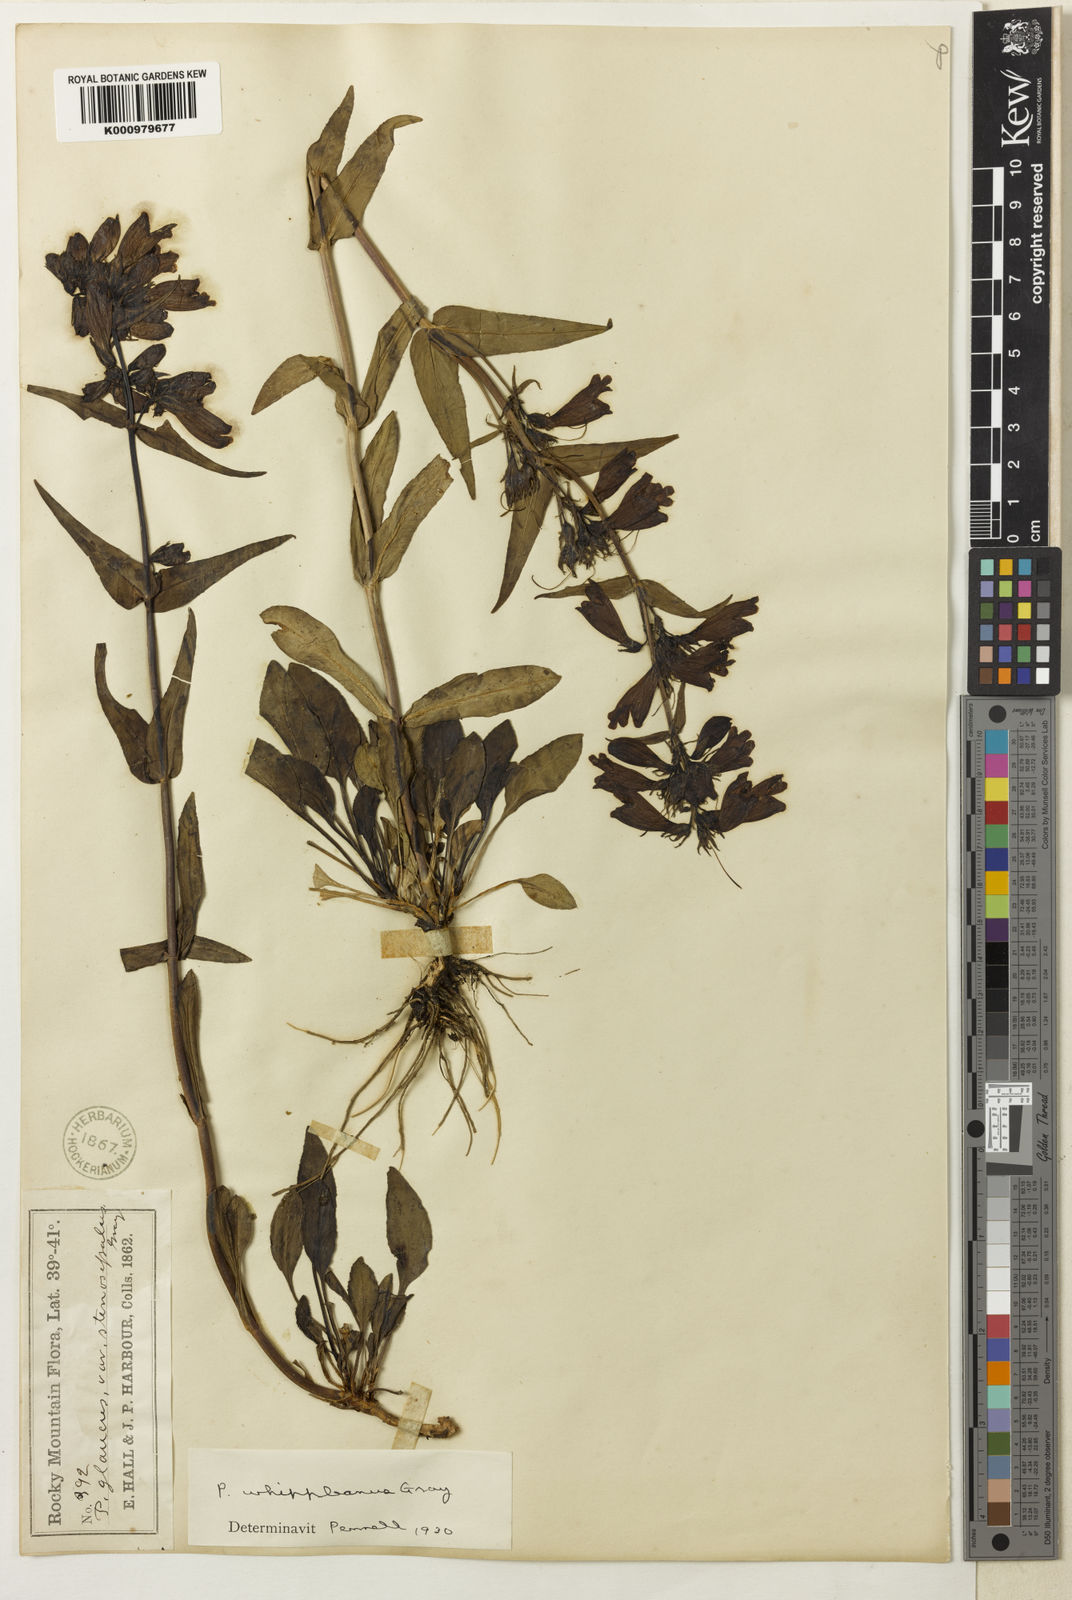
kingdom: Plantae
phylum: Tracheophyta
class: Magnoliopsida
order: Lamiales
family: Plantaginaceae
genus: Penstemon
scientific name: Penstemon whippleanus
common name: Whipple's penstemon
